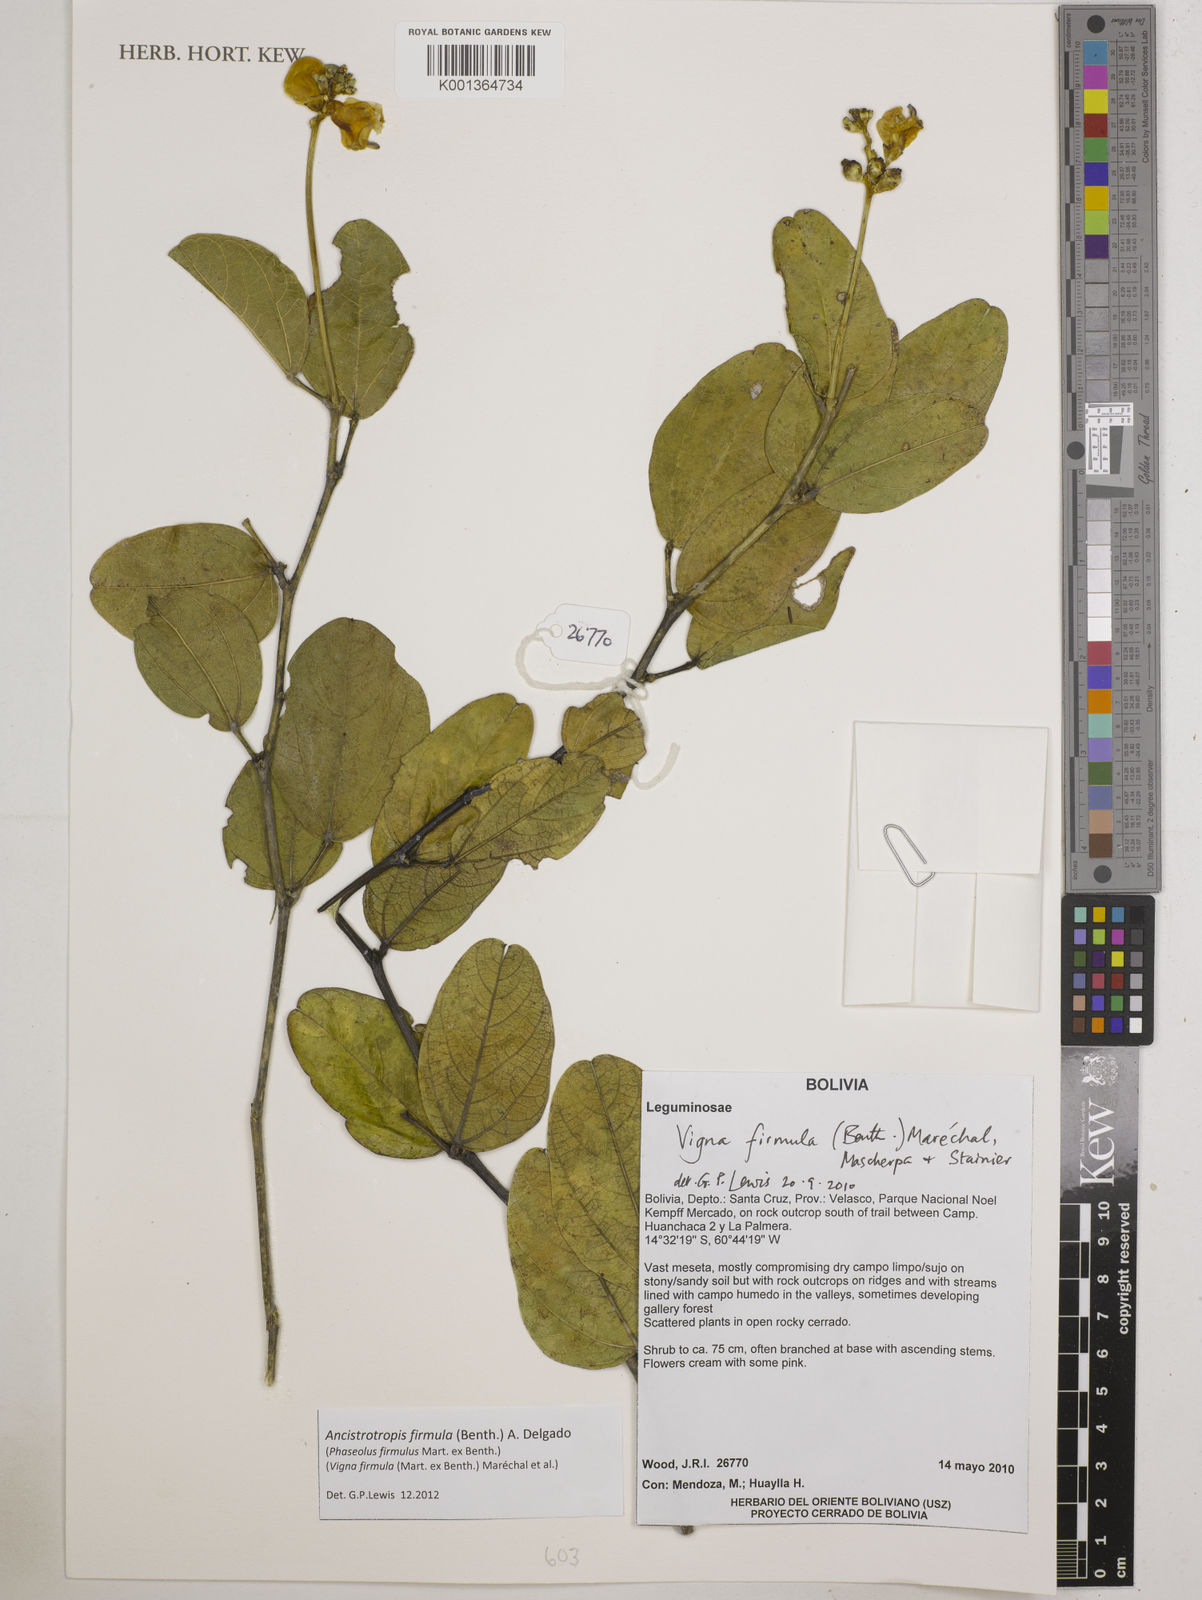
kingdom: Plantae
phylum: Tracheophyta
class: Magnoliopsida
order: Fabales
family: Fabaceae
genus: Ancistrotropis
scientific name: Ancistrotropis firmula
